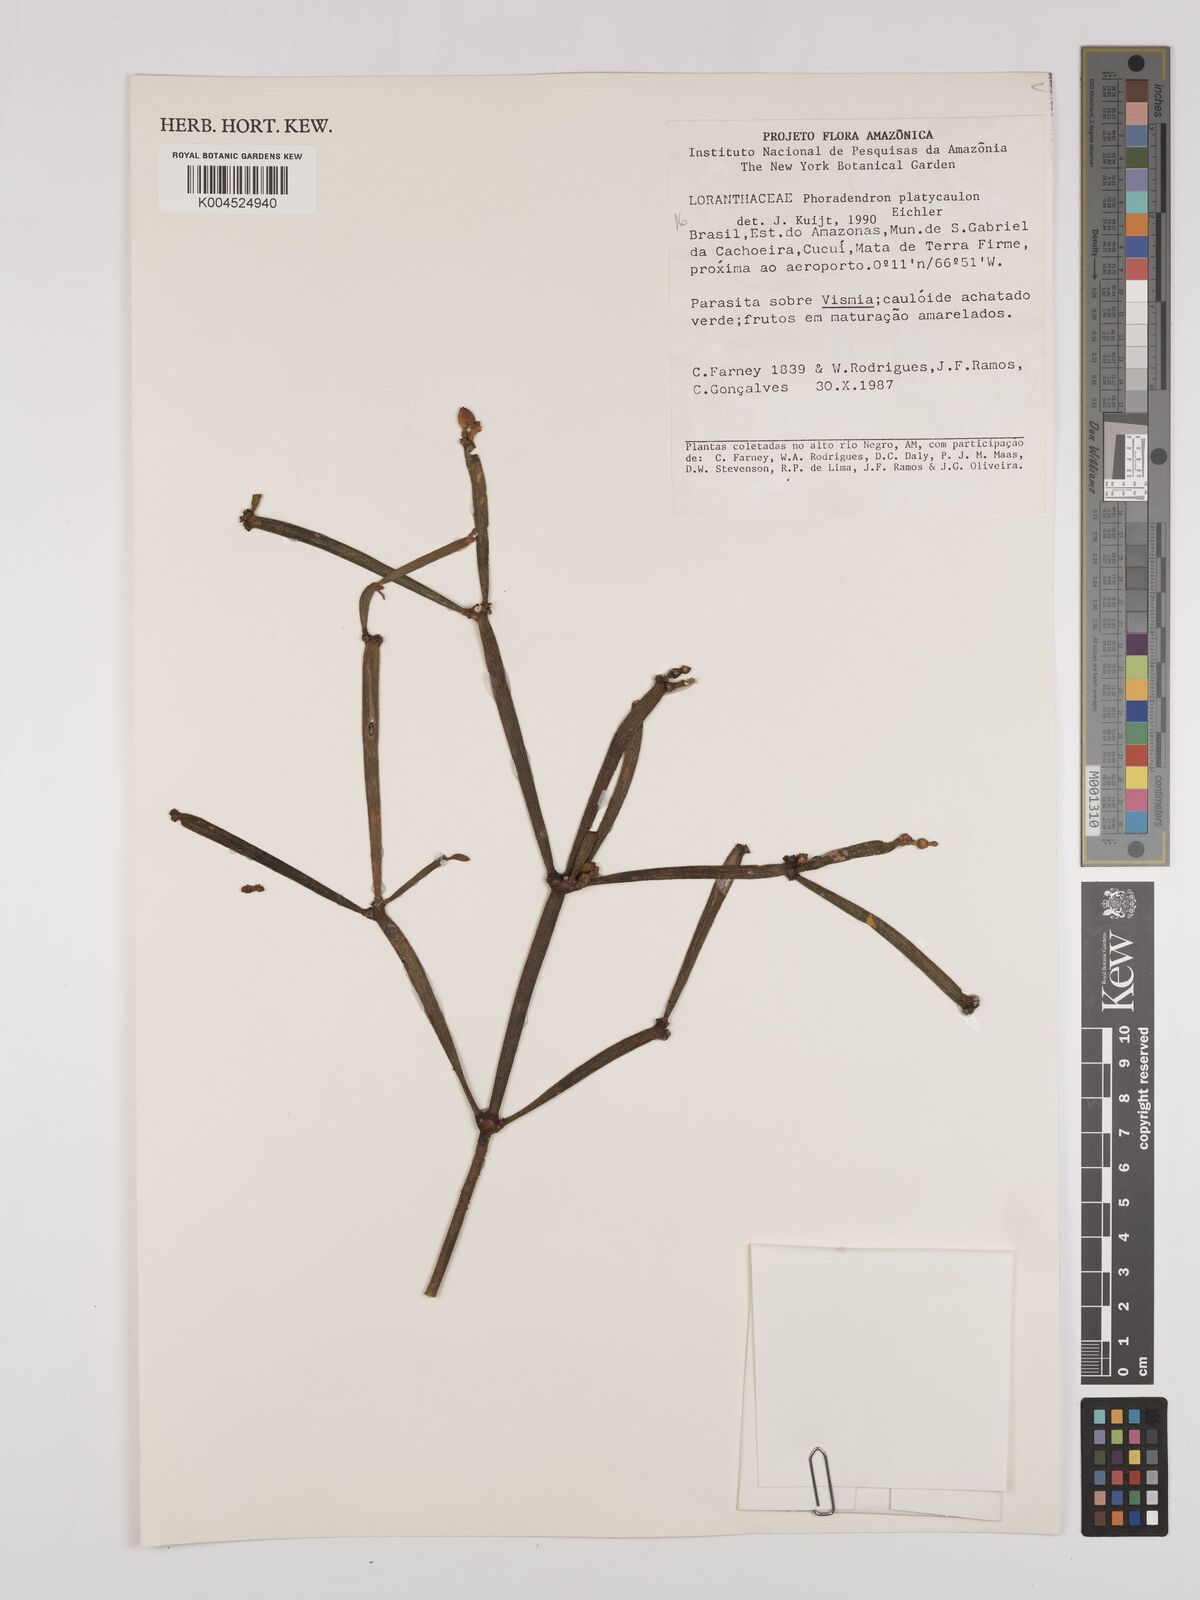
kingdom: Plantae
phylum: Tracheophyta
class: Magnoliopsida
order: Santalales
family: Viscaceae
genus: Phoradendron
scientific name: Phoradendron planiphyllum
